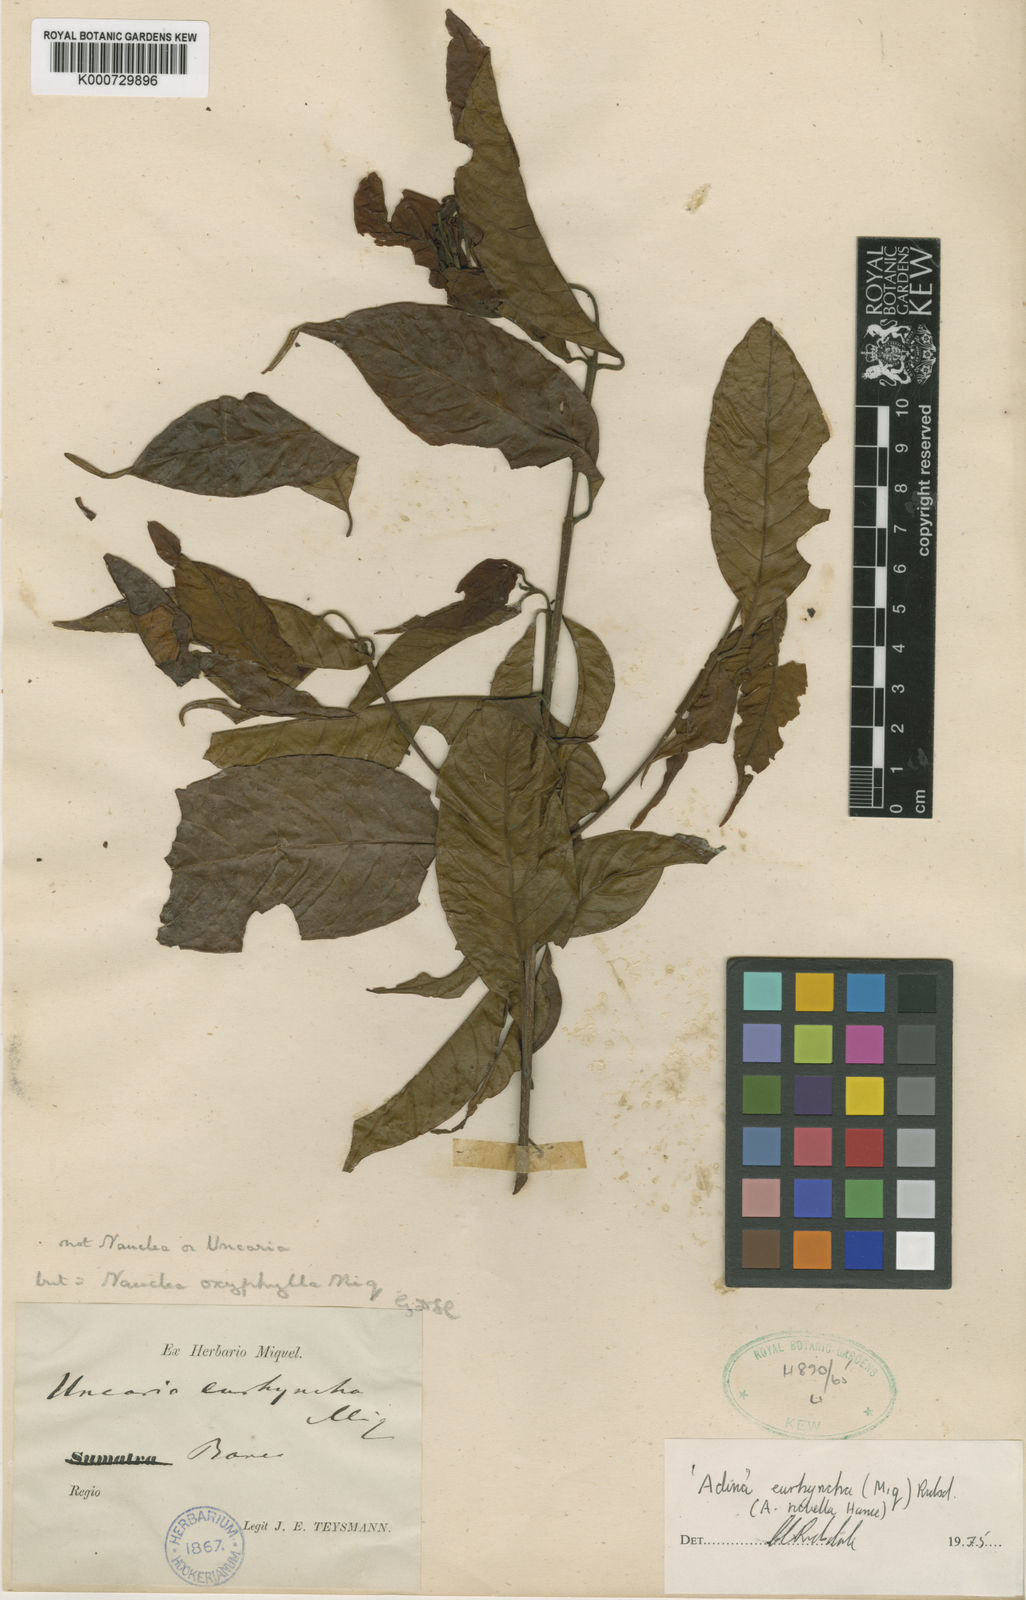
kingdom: Plantae
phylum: Tracheophyta
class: Magnoliopsida
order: Gentianales
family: Rubiaceae
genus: Adina
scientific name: Adina eurhyncha
